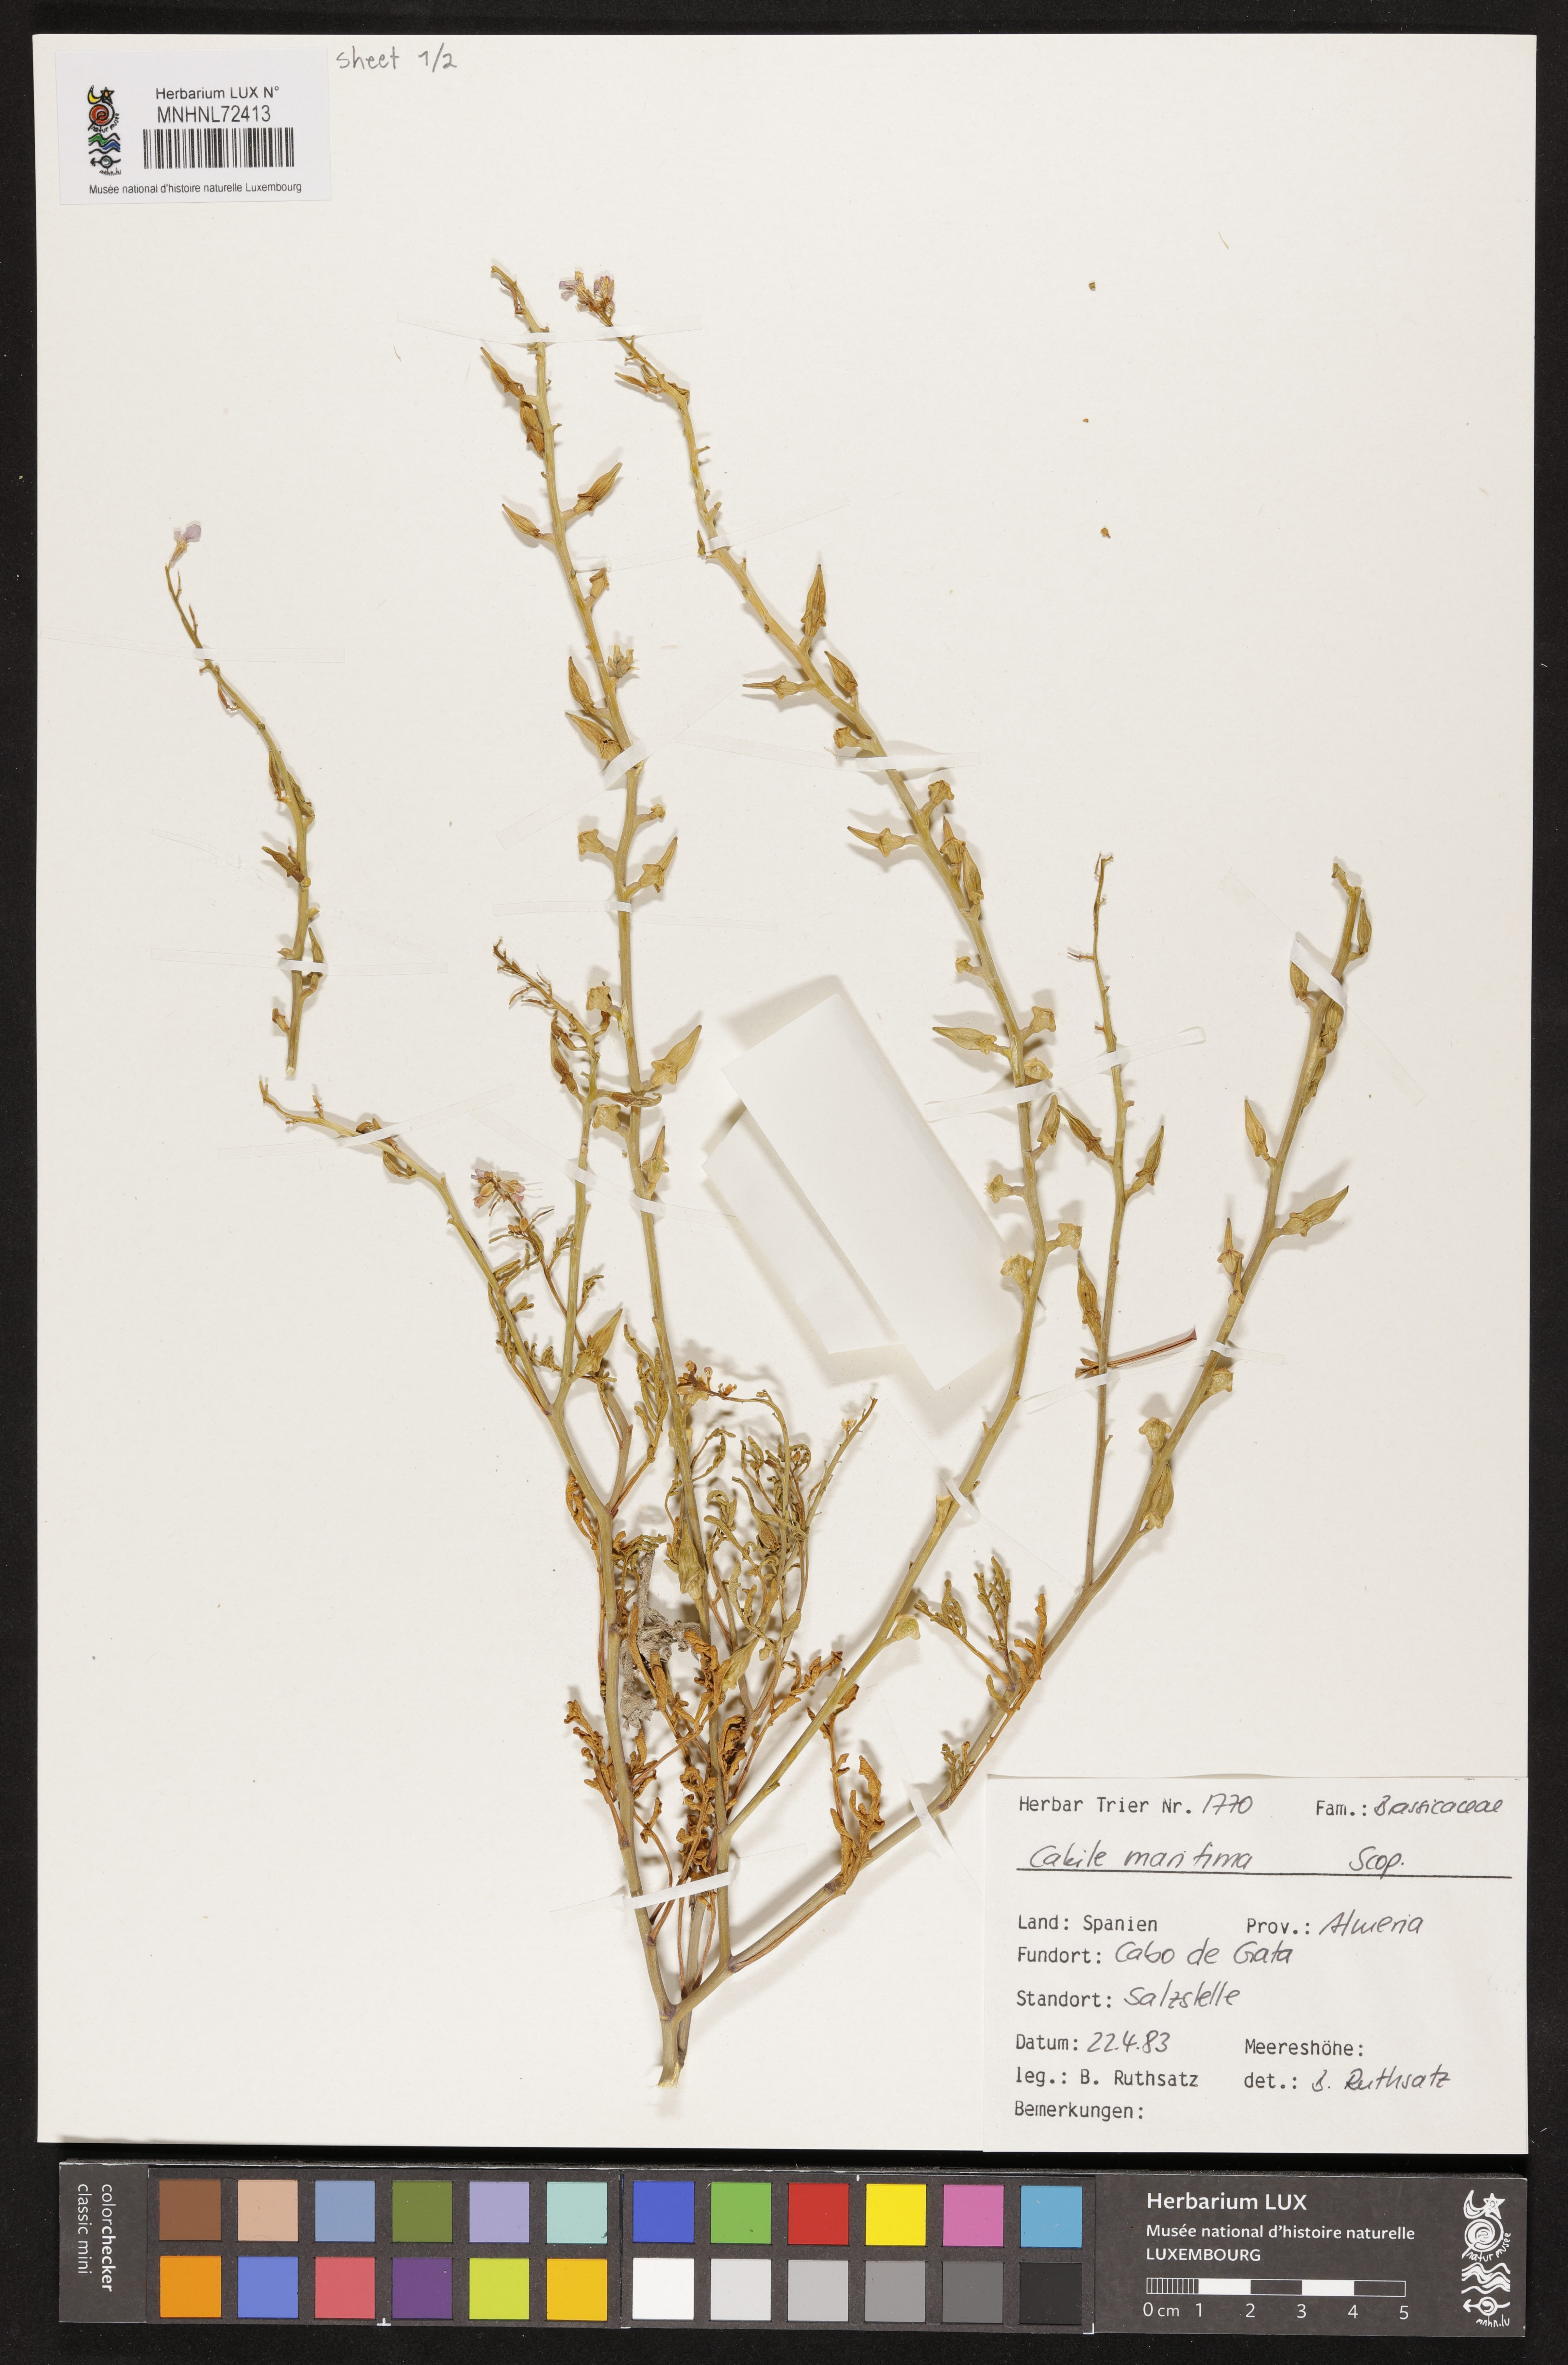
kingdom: Plantae
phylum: Tracheophyta
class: Magnoliopsida
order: Brassicales
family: Brassicaceae
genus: Cakile
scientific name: Cakile maritima
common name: Sea rocket
